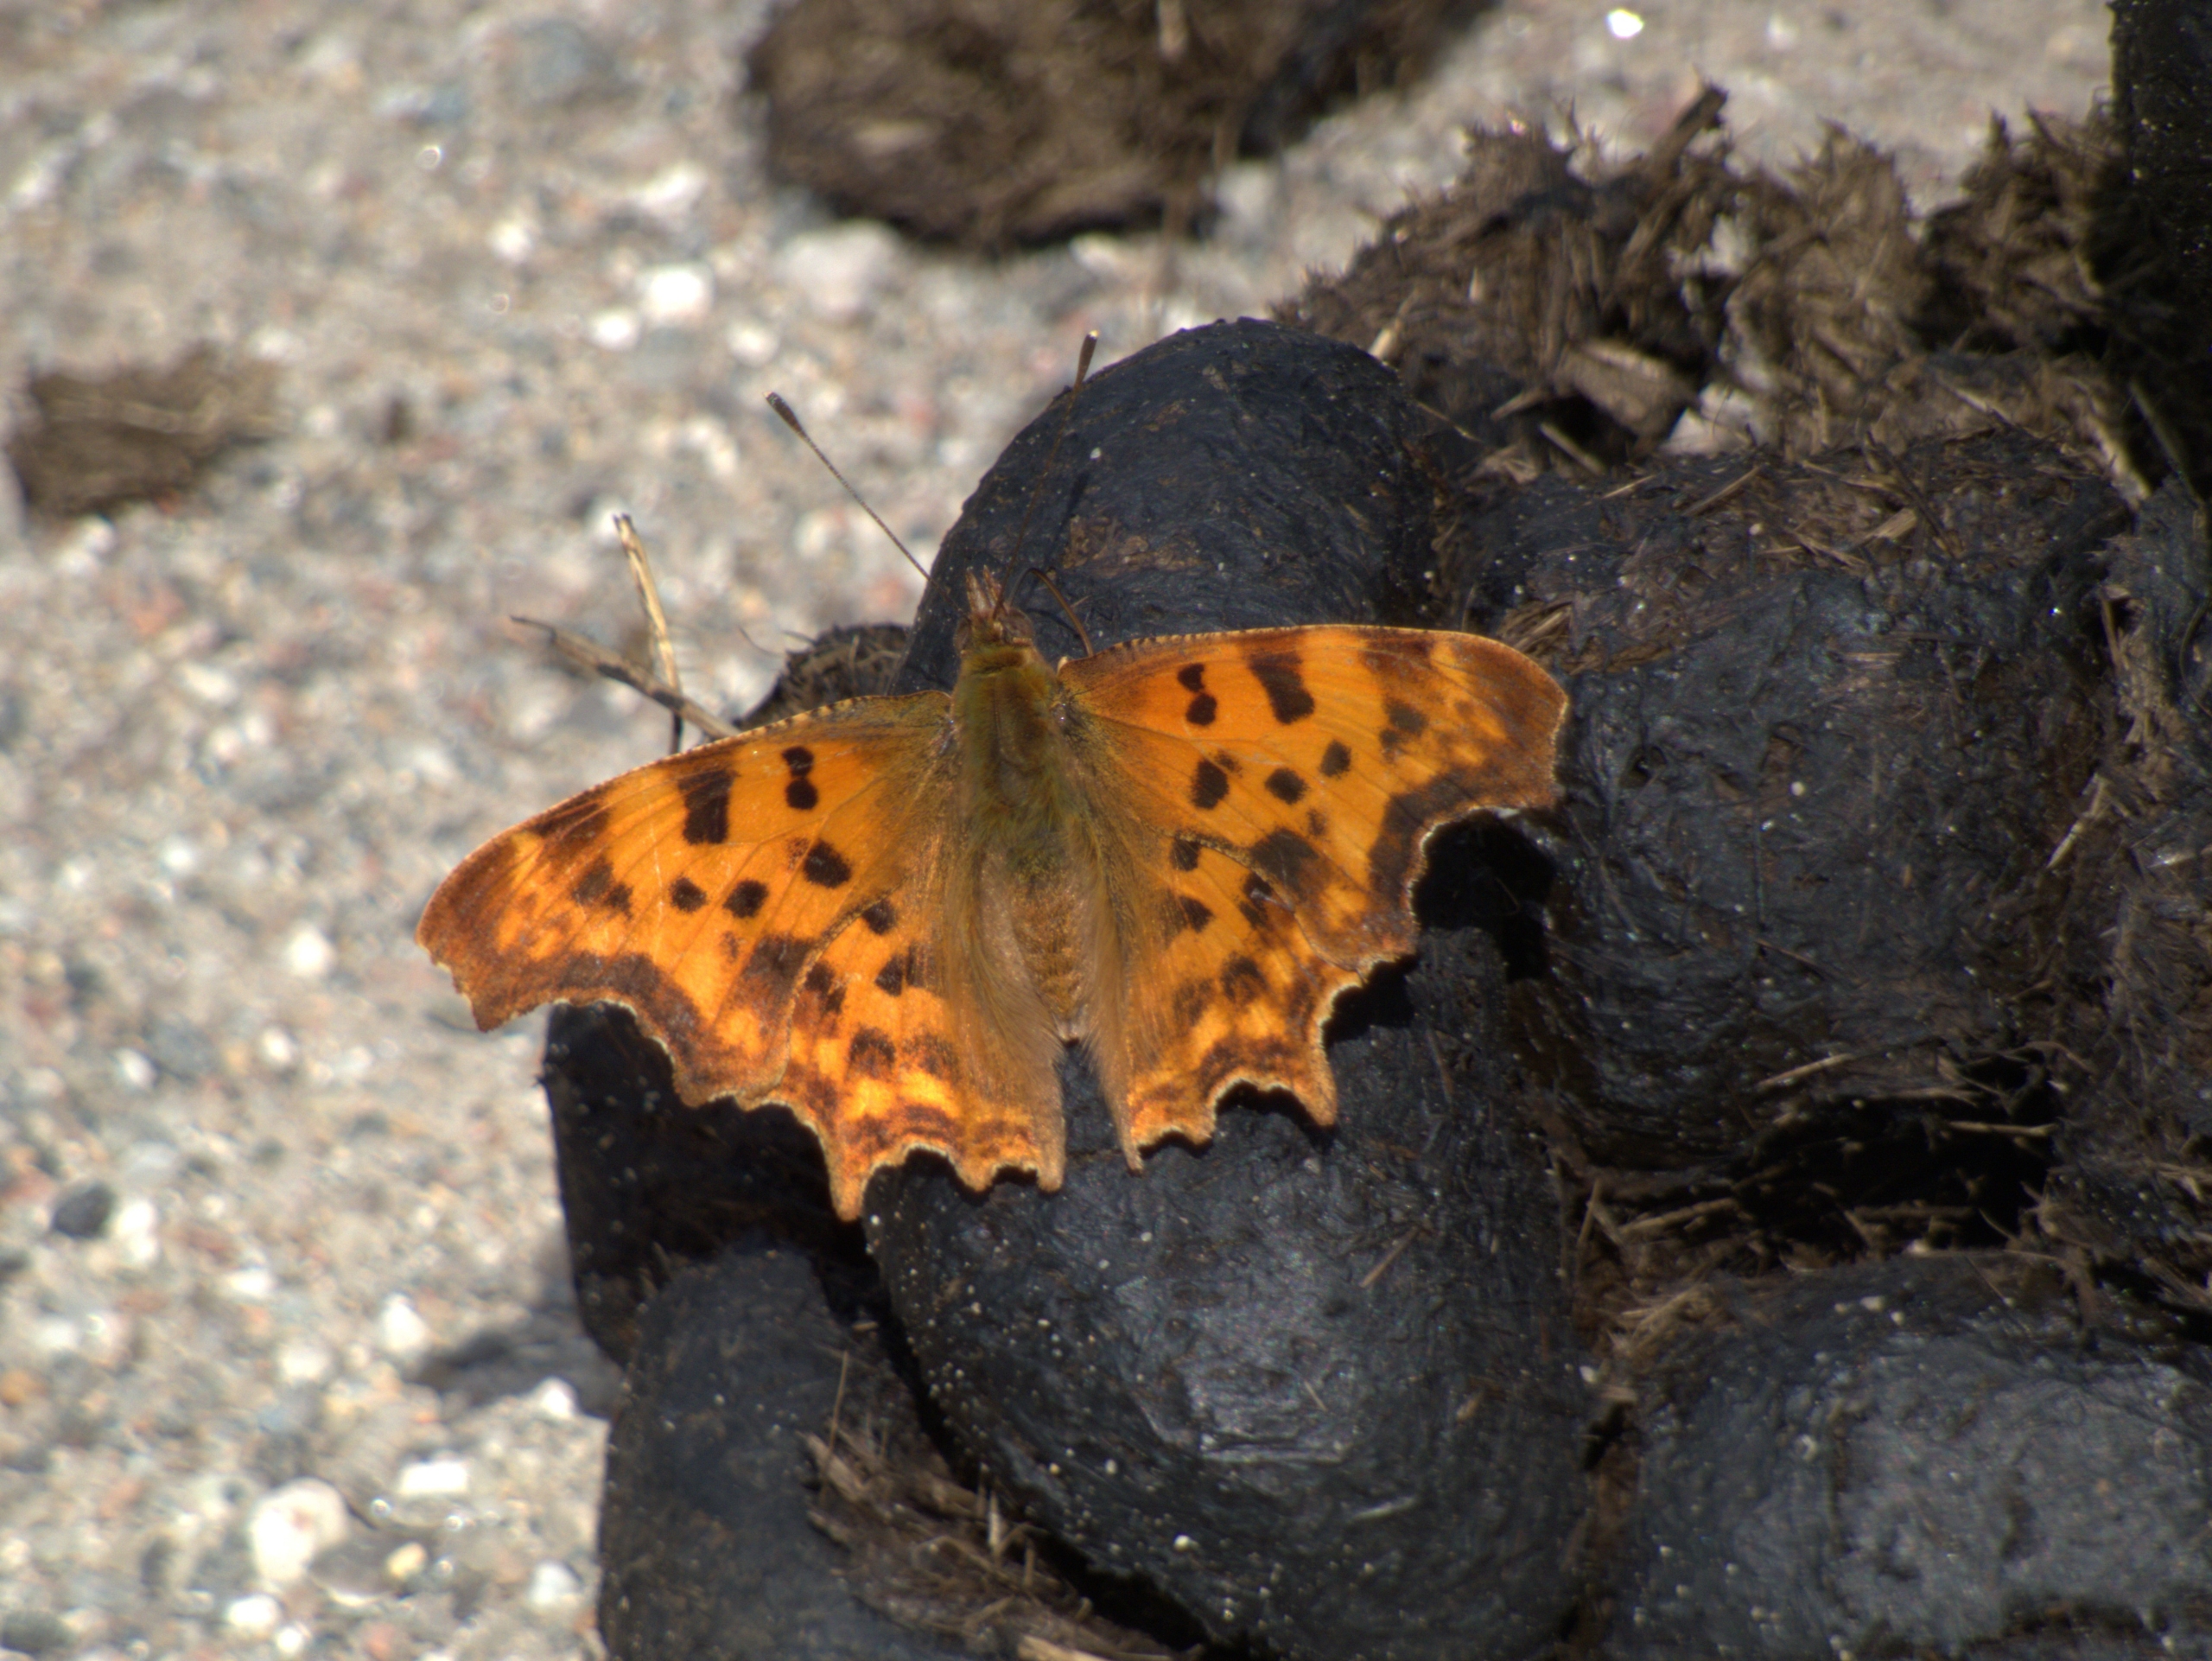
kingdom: Animalia
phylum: Arthropoda
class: Insecta
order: Lepidoptera
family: Nymphalidae
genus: Polygonia
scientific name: Polygonia c-album
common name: Det hvide C
